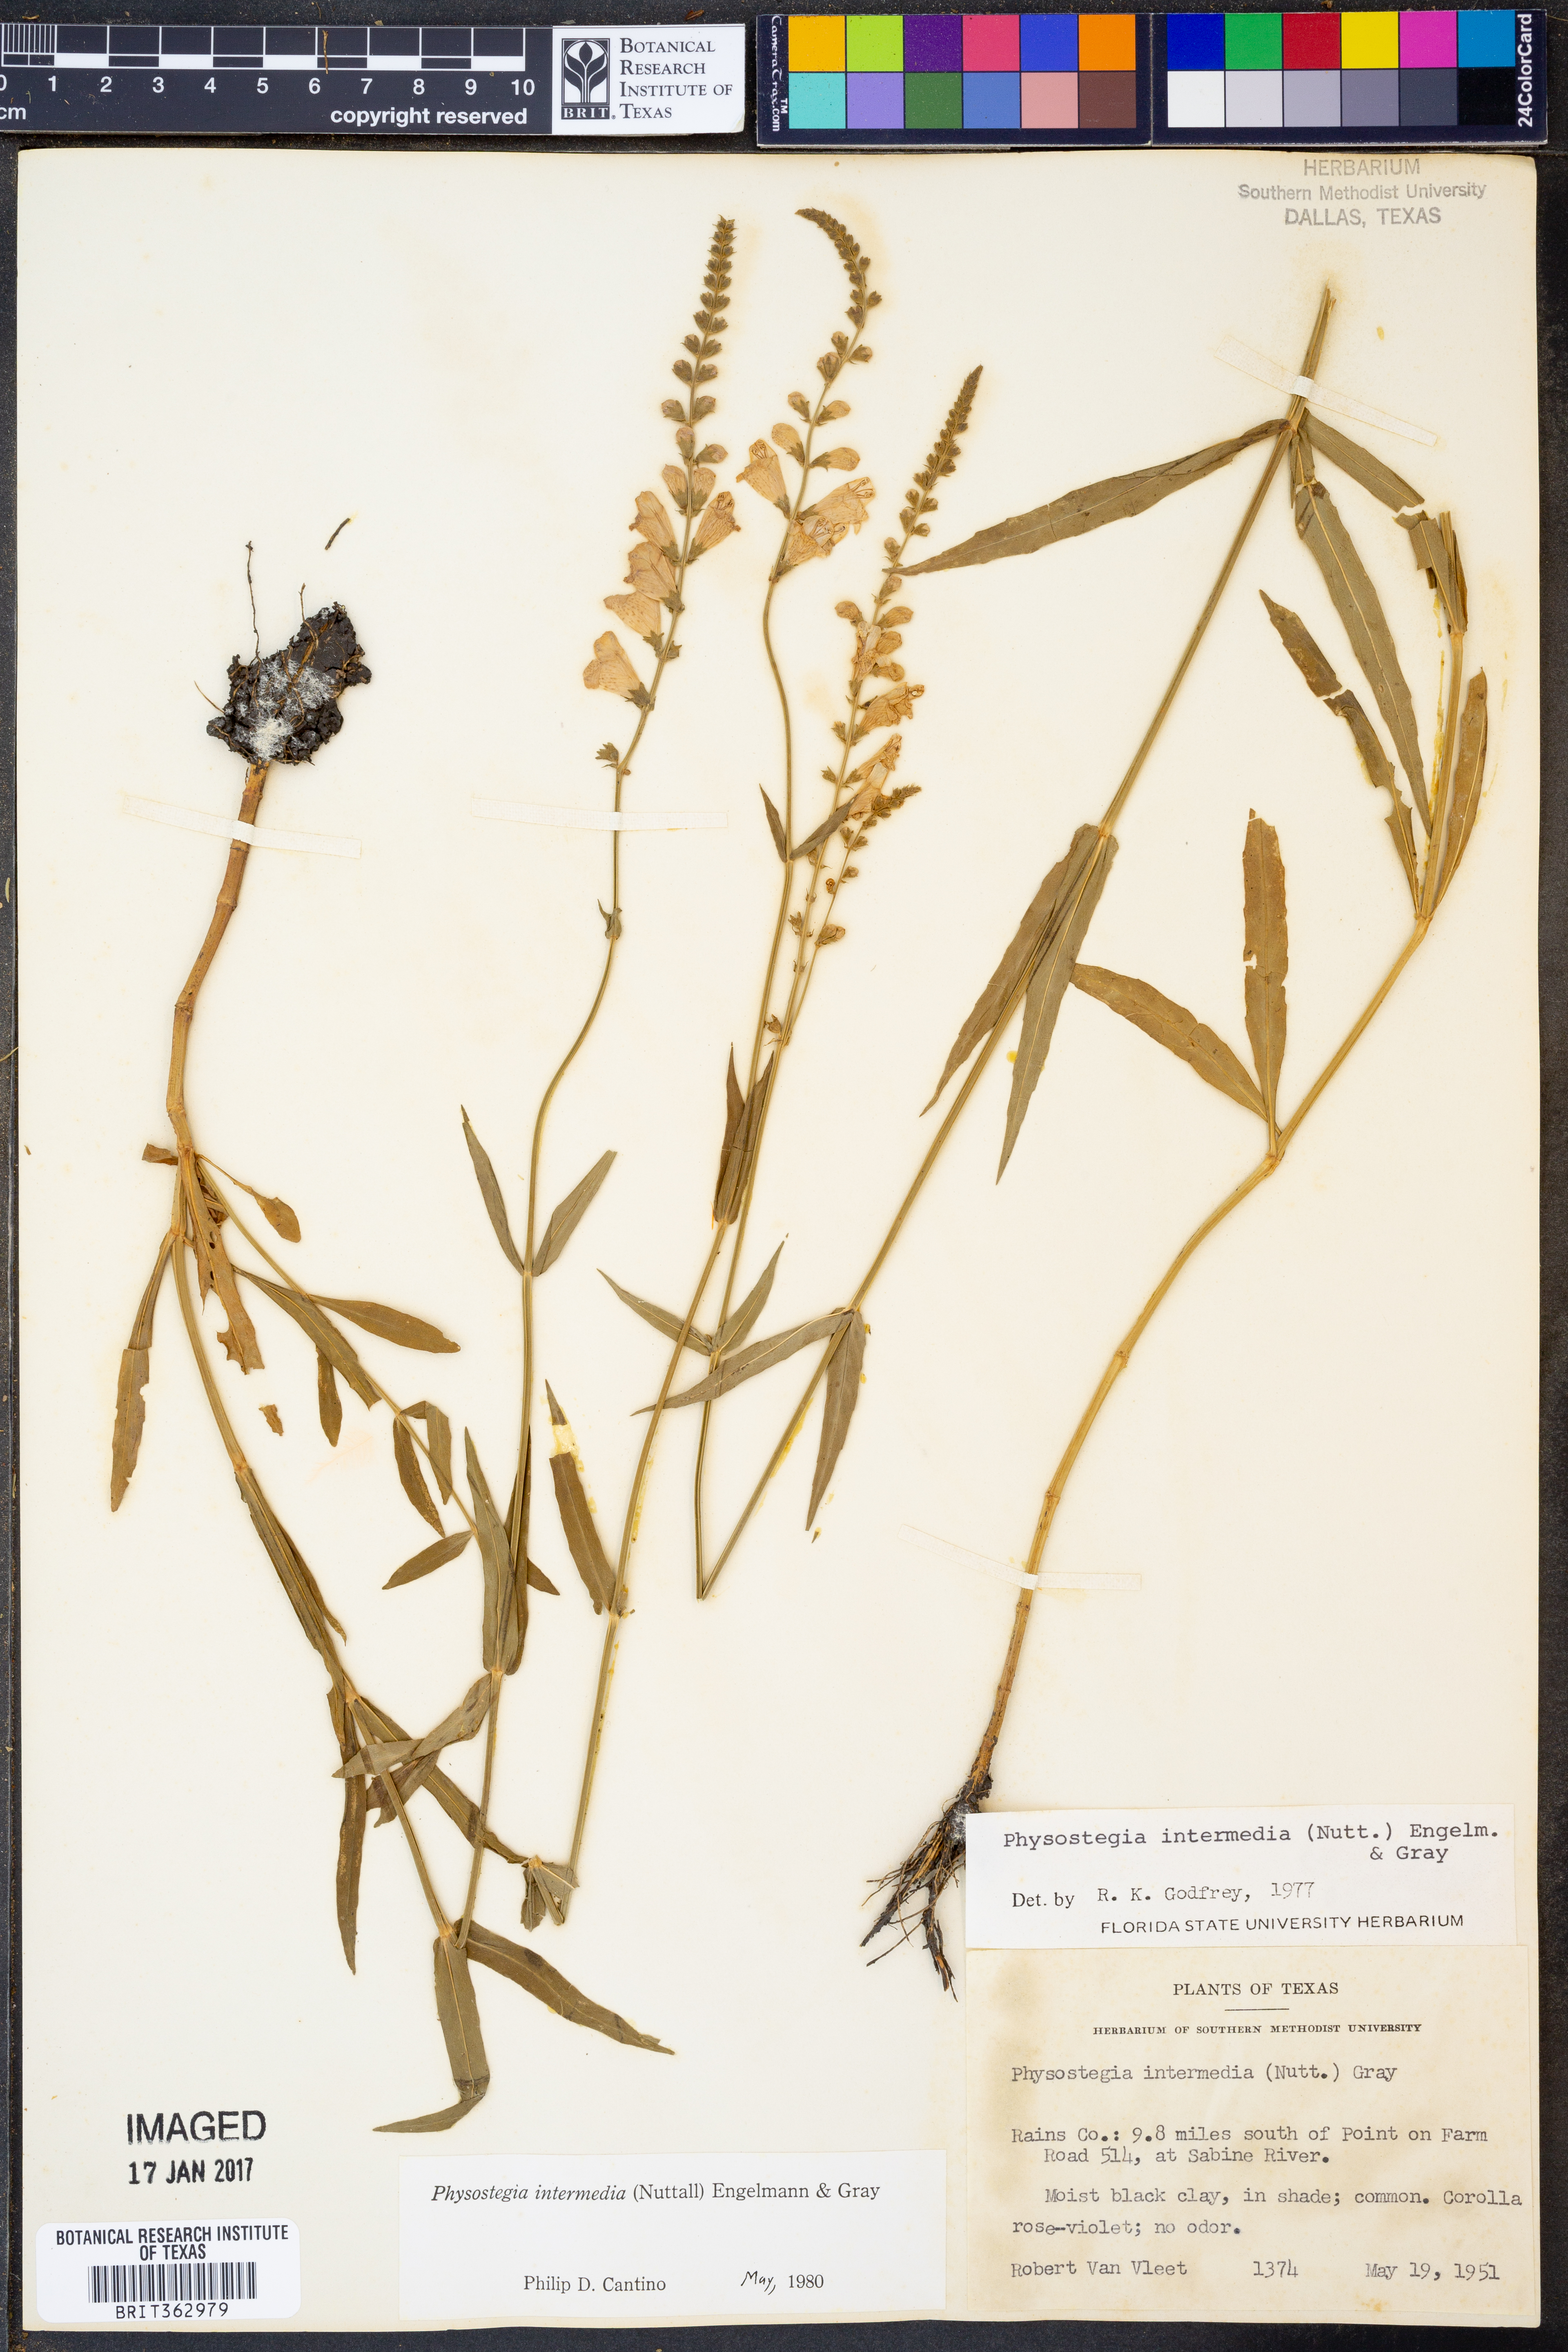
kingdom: Plantae
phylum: Tracheophyta
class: Magnoliopsida
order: Lamiales
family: Lamiaceae
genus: Physostegia
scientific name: Physostegia intermedia
